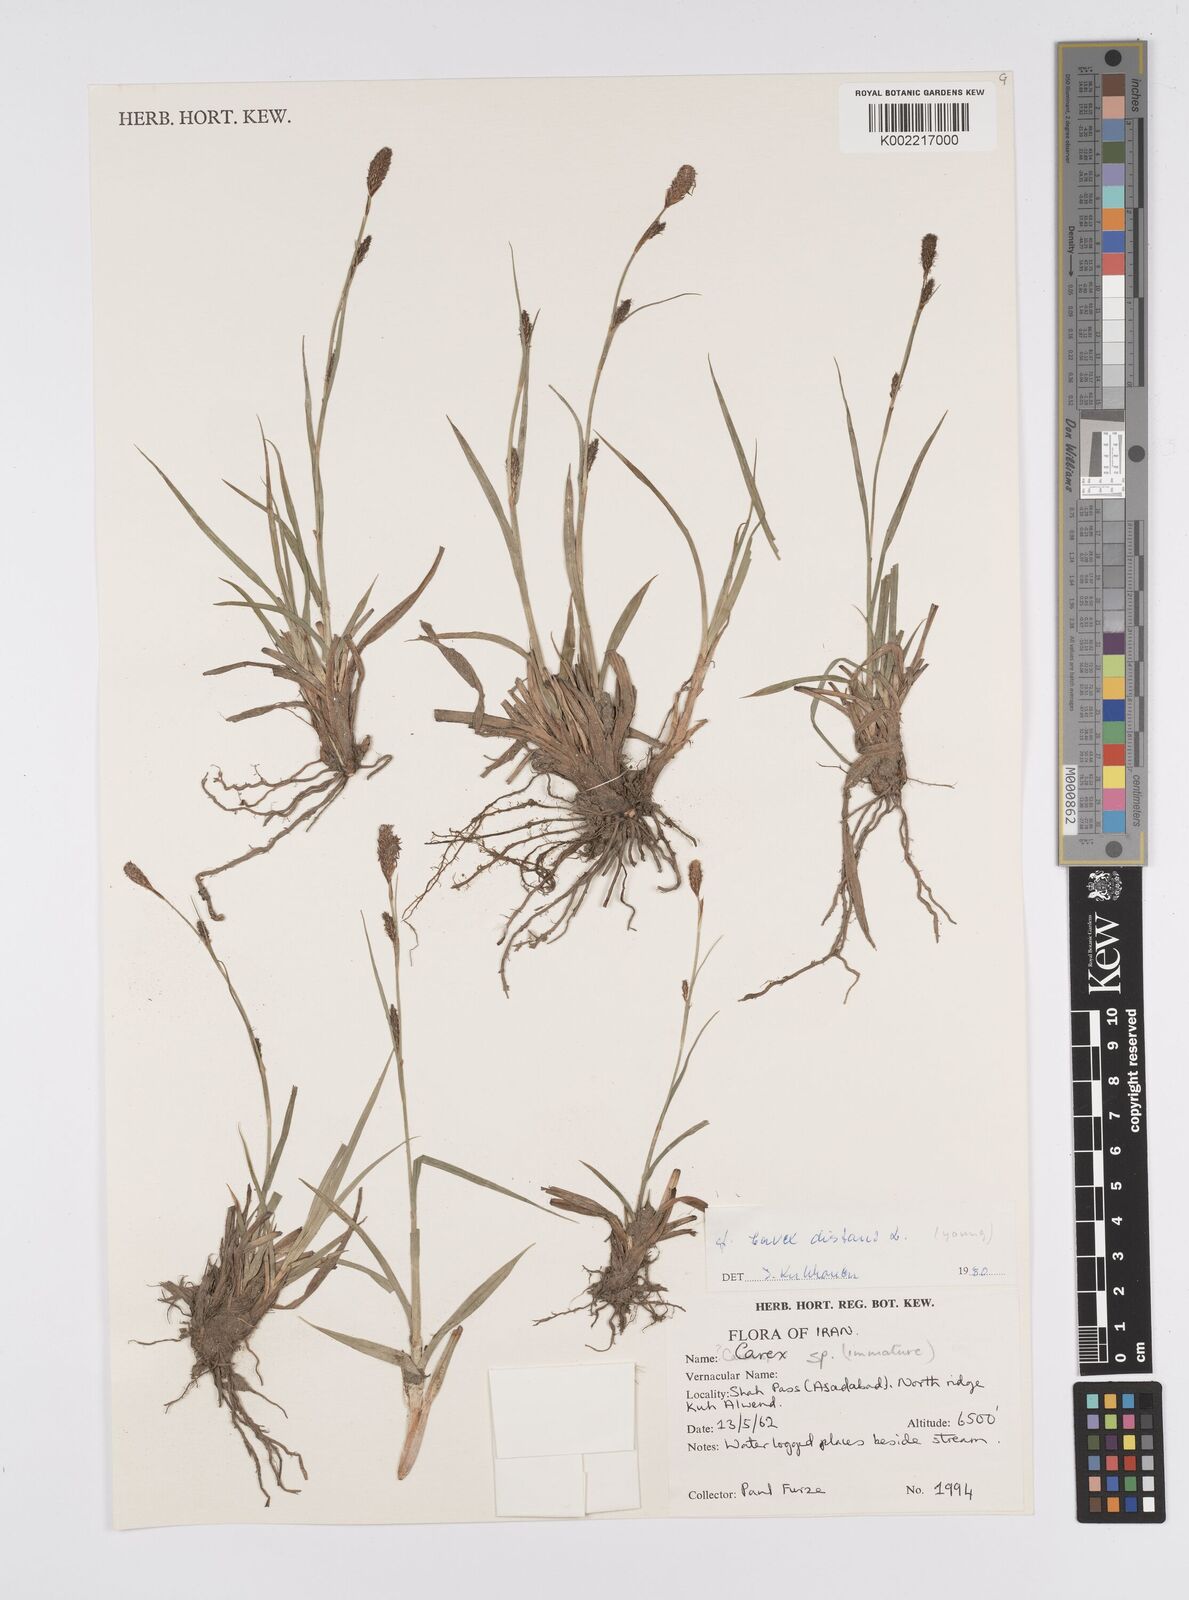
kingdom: Plantae
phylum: Tracheophyta
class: Liliopsida
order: Poales
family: Cyperaceae
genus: Carex
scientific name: Carex distans
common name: Distant sedge
